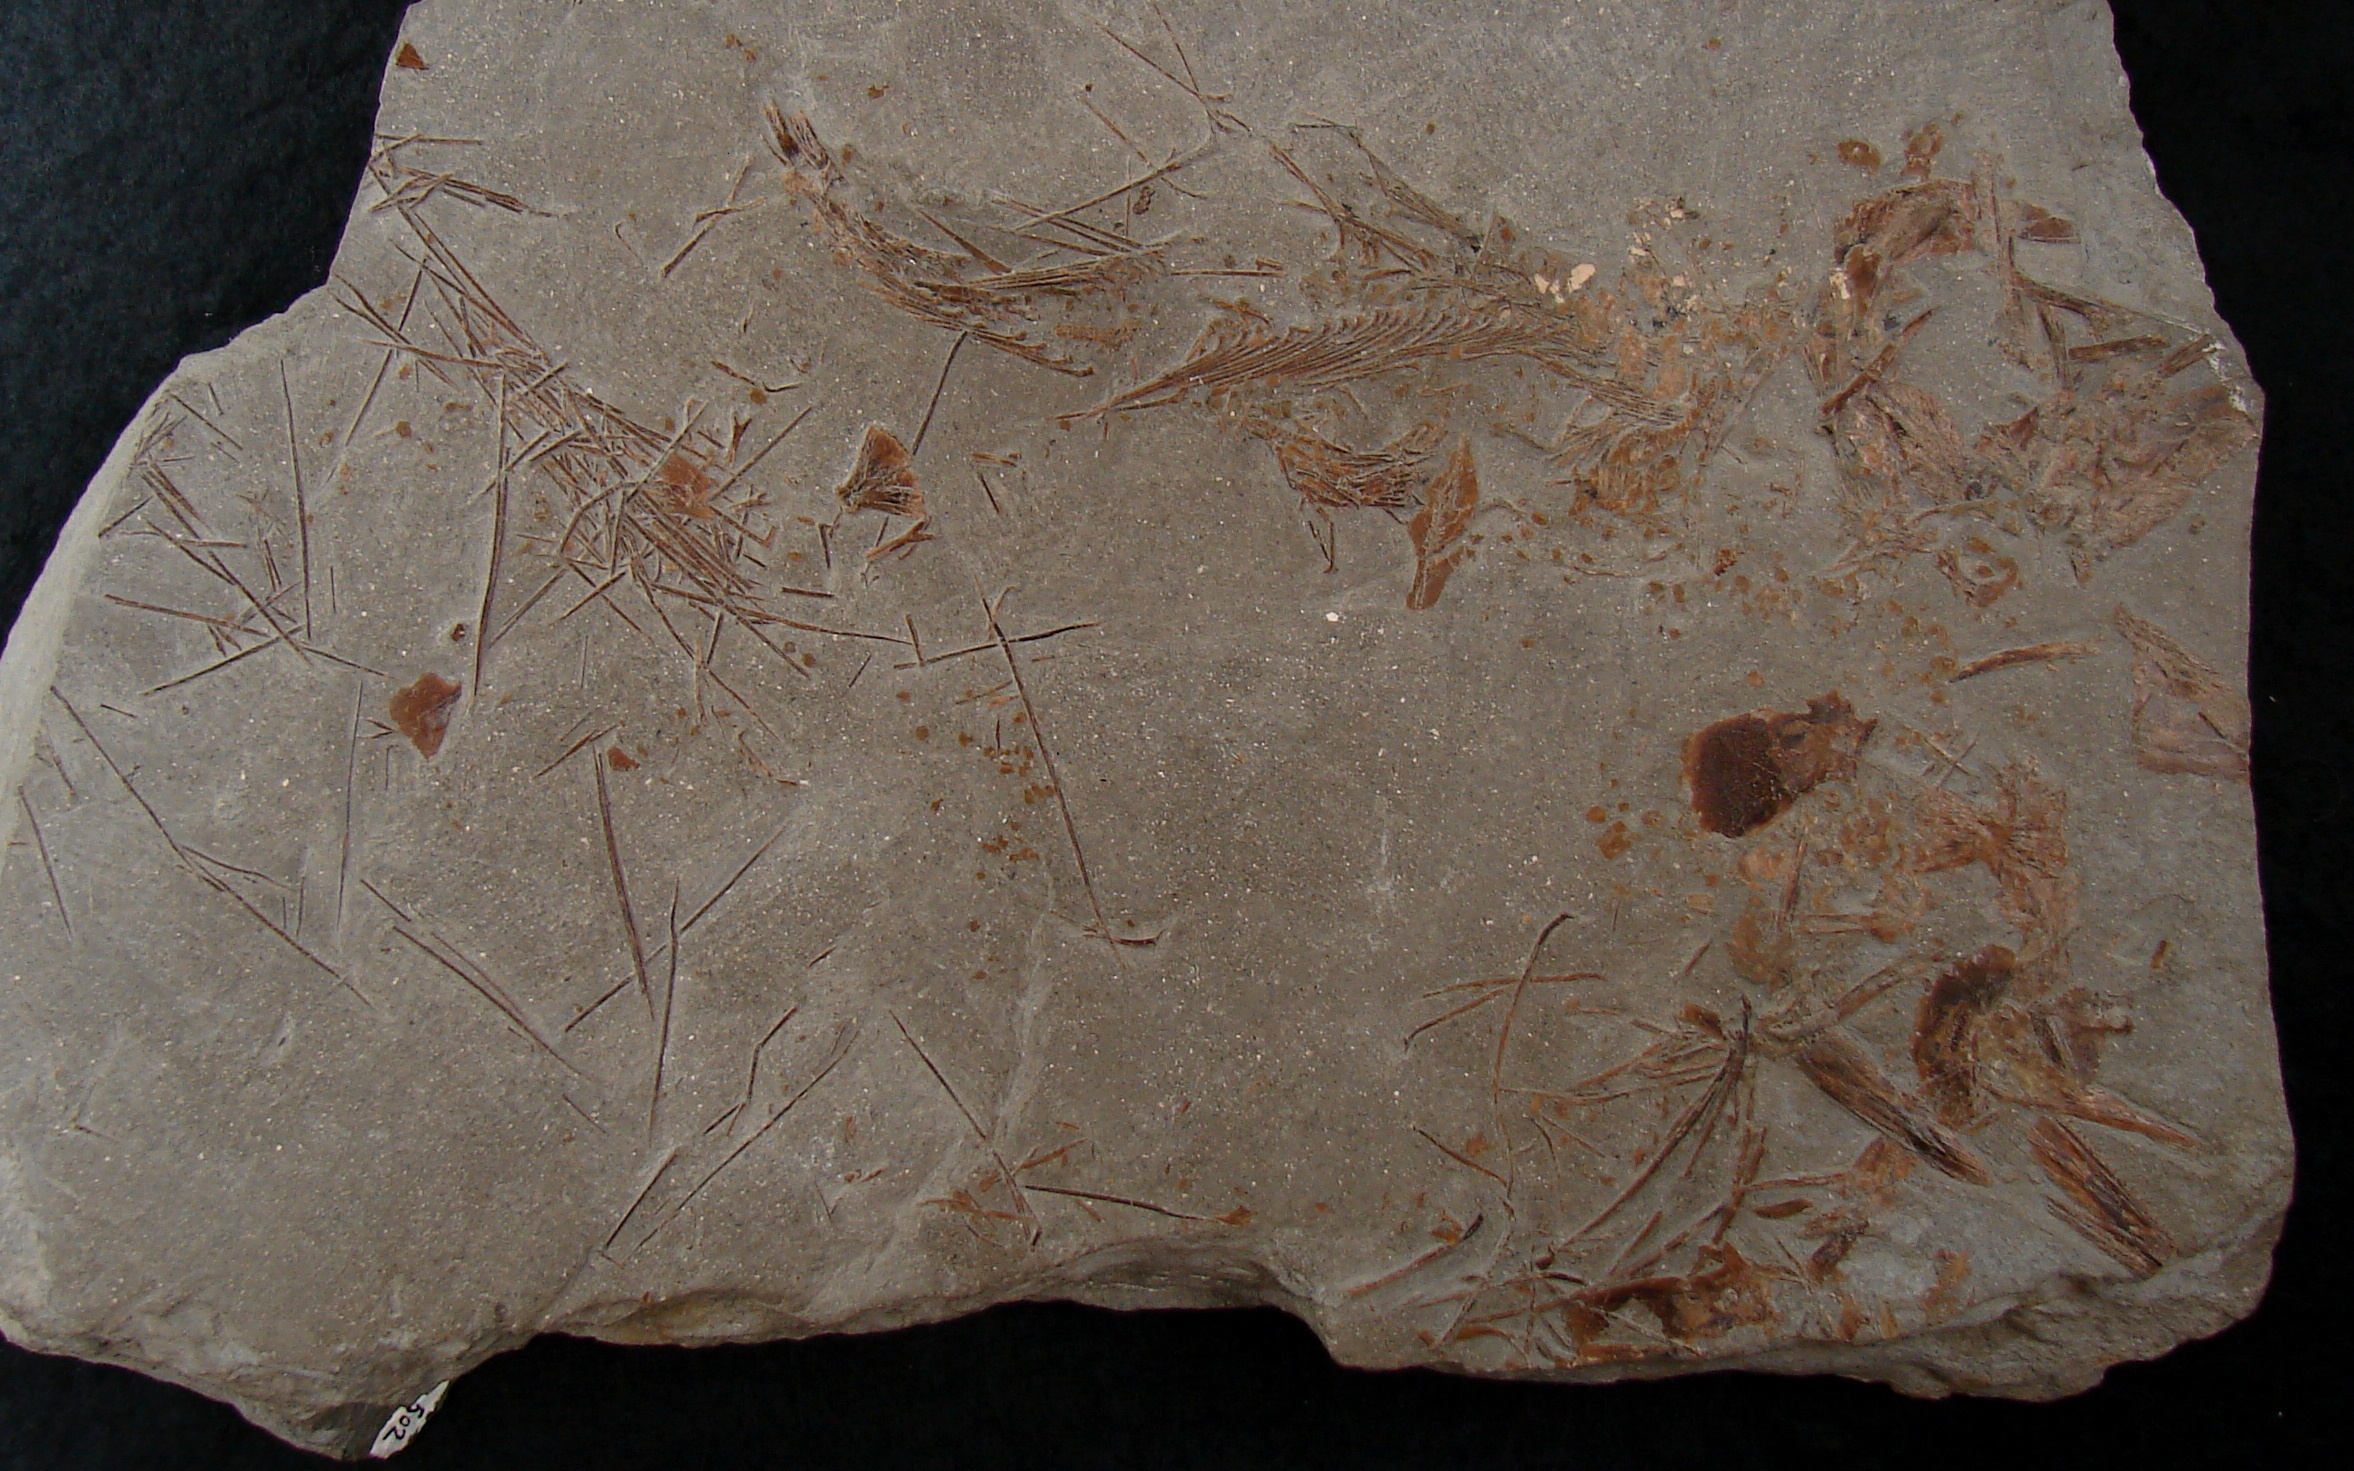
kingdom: Animalia
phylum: Chordata
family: Pachycormidae
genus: Saurostomus
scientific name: Saurostomus esocinus
